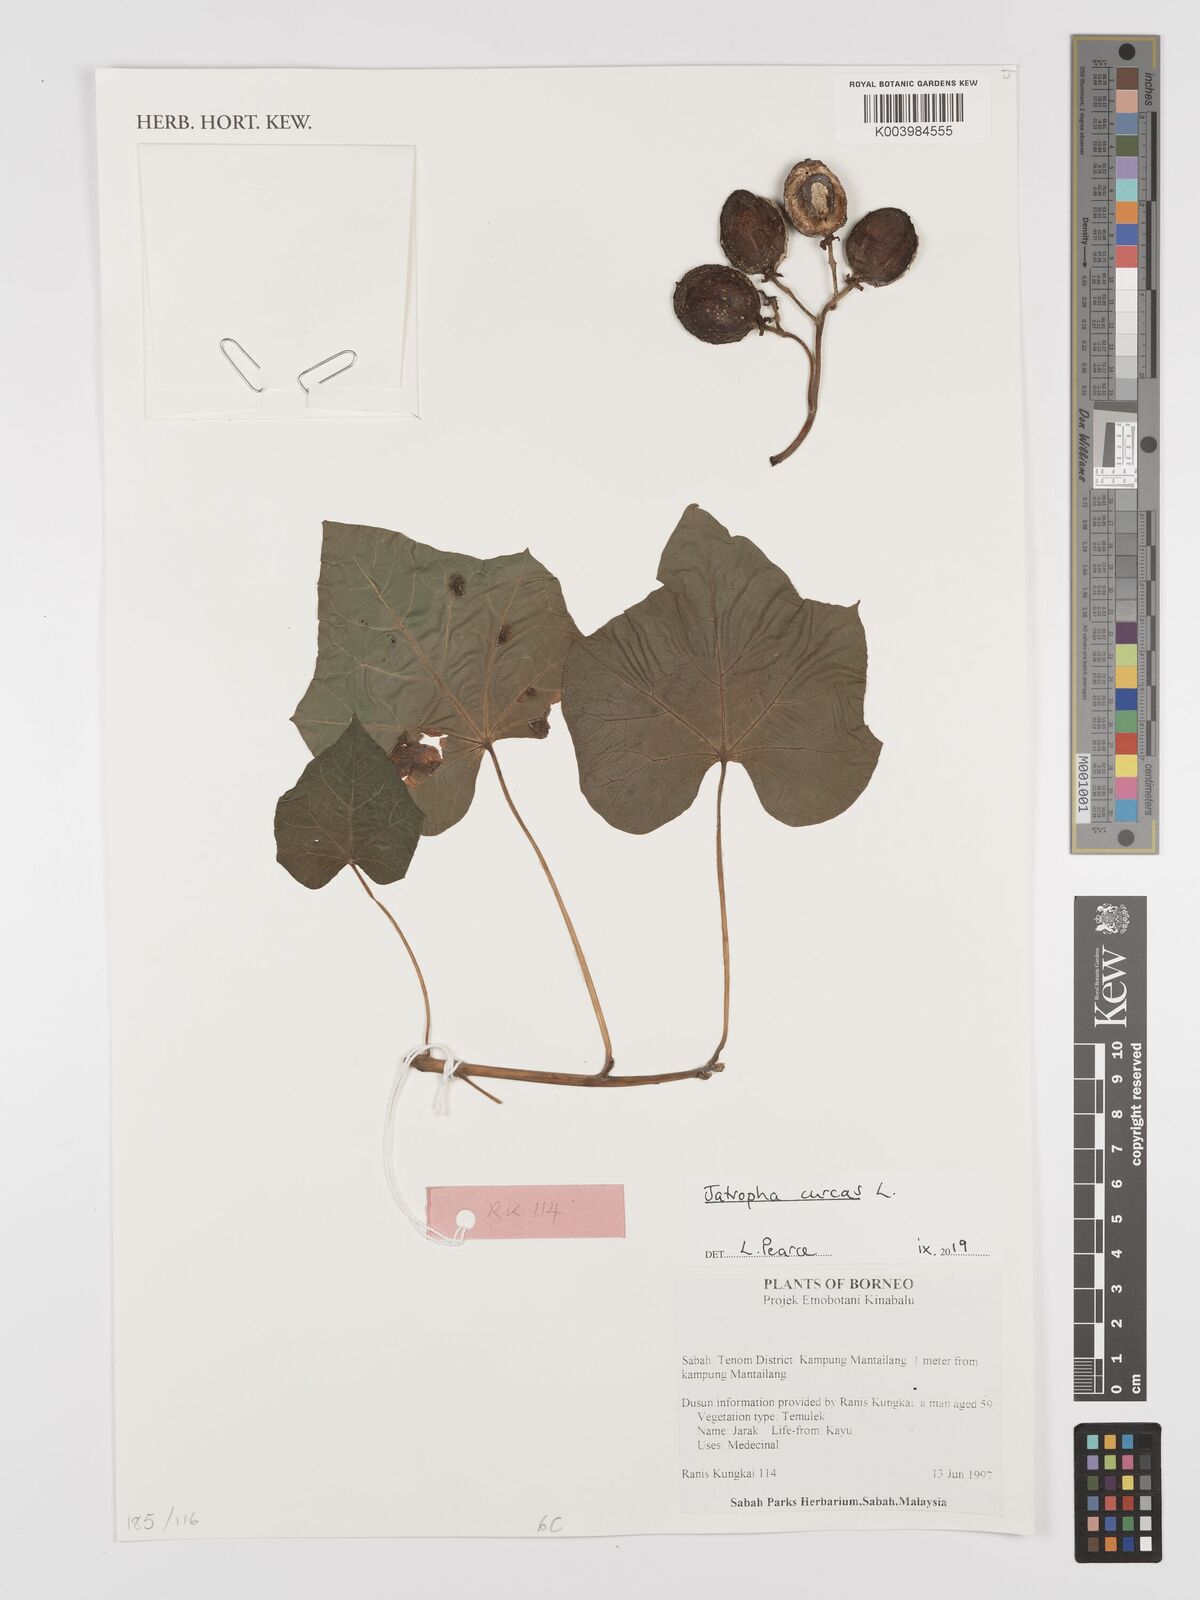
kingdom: Plantae
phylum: Tracheophyta
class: Magnoliopsida
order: Malpighiales
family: Euphorbiaceae
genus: Jatropha
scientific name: Jatropha curcas
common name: Barbados nut
